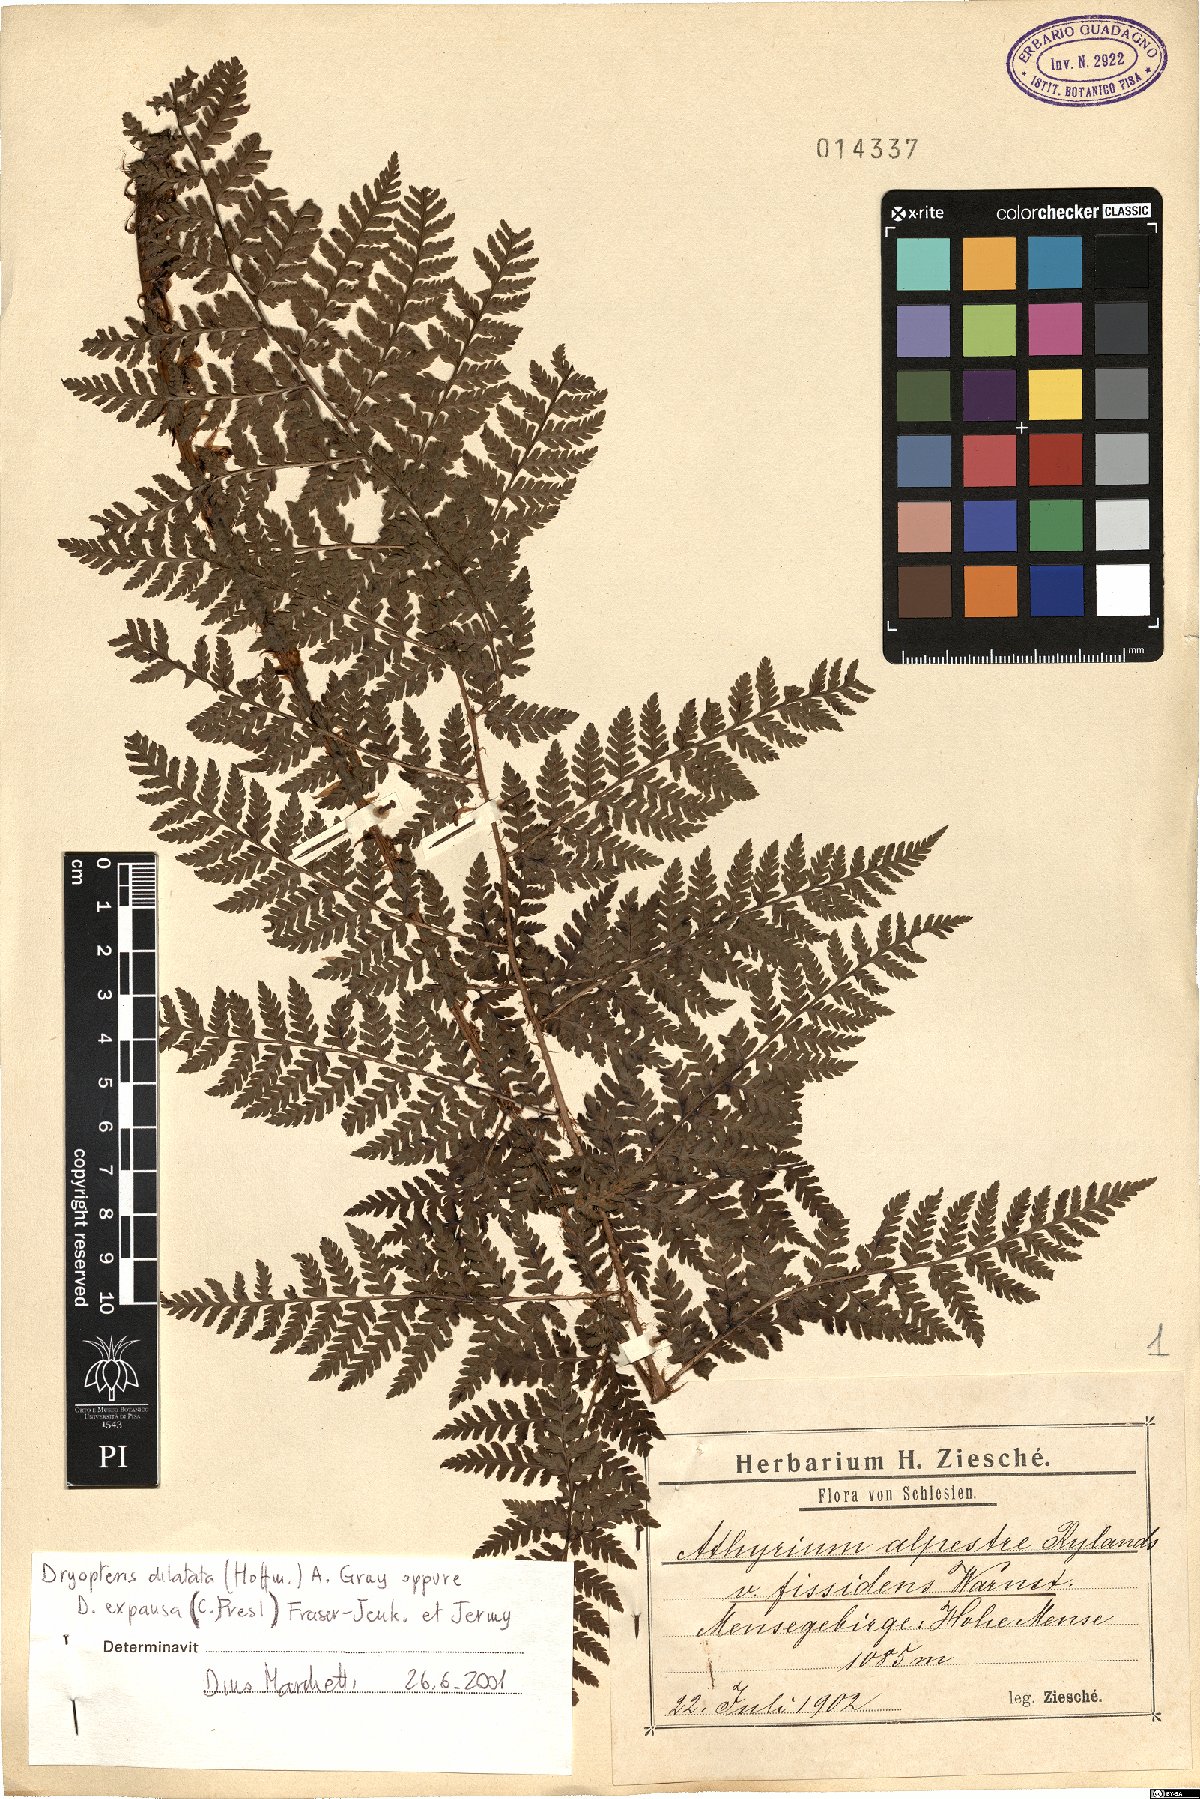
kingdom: Plantae
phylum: Tracheophyta
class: Polypodiopsida
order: Polypodiales
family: Dryopteridaceae
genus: Dryopteris
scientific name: Dryopteris dilatata
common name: Broad buckler-fern
